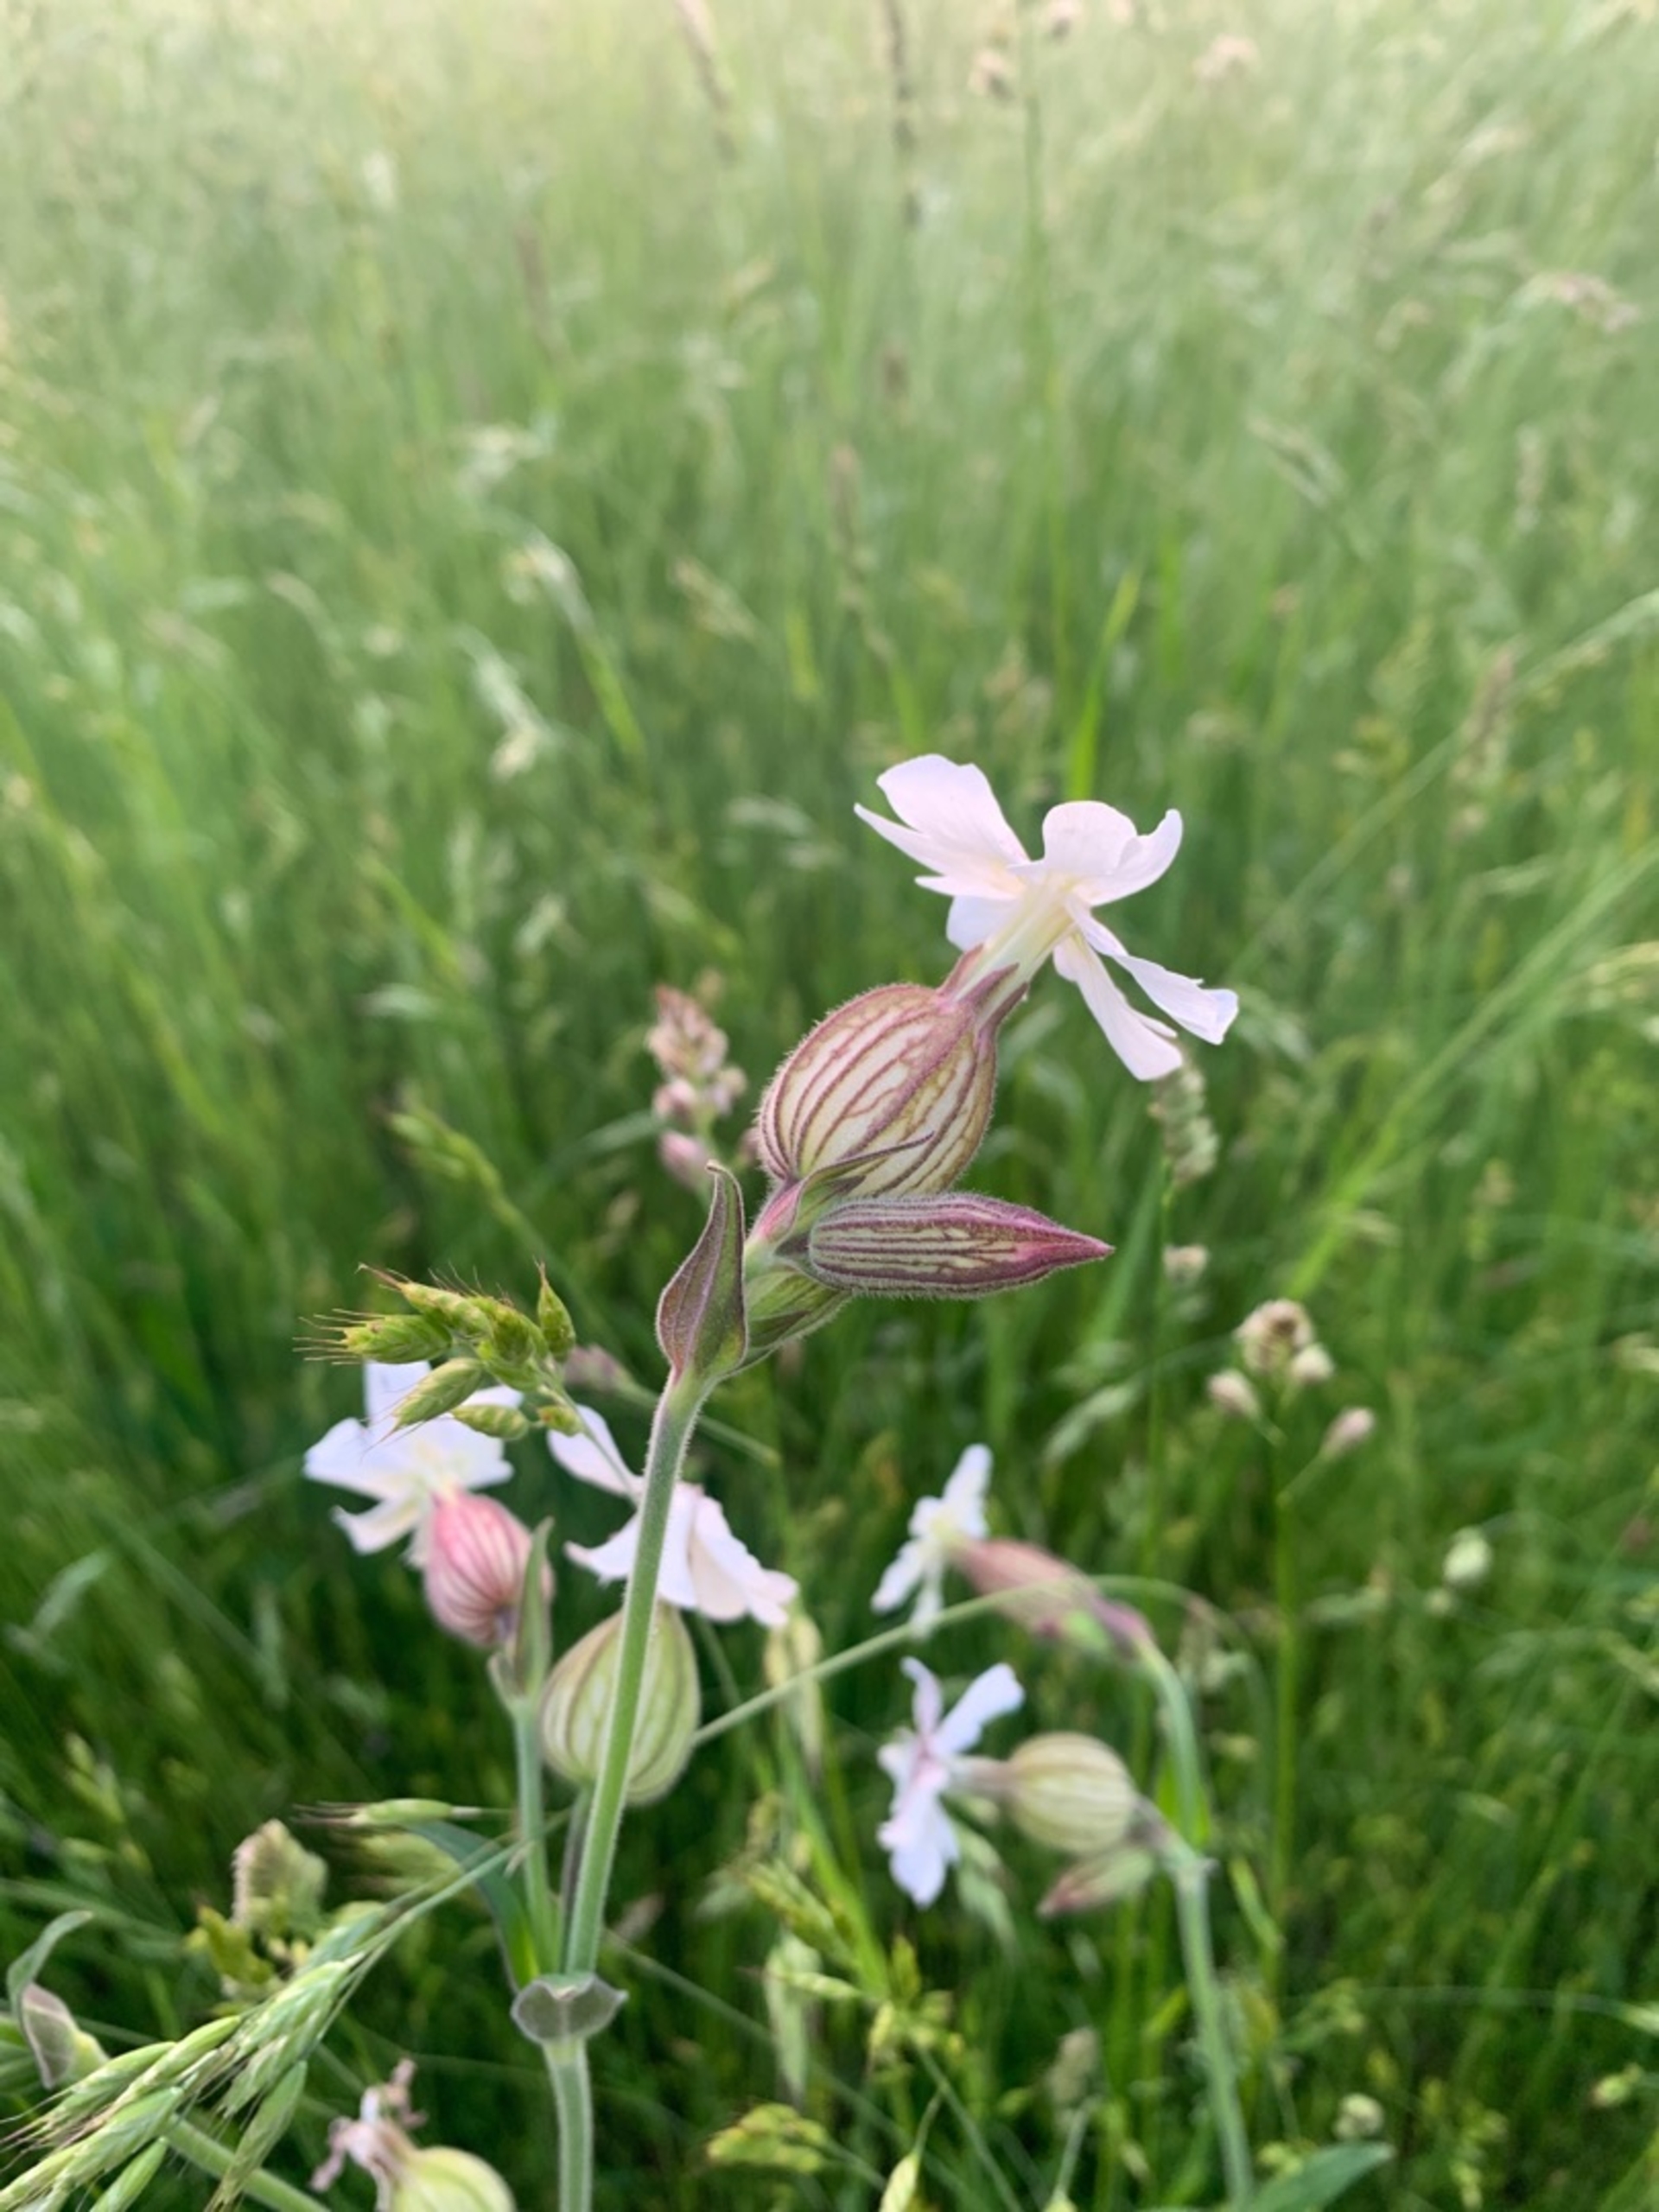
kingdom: Plantae
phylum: Tracheophyta
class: Magnoliopsida
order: Caryophyllales
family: Caryophyllaceae
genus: Silene
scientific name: Silene latifolia
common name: Aftenpragtstjerne
